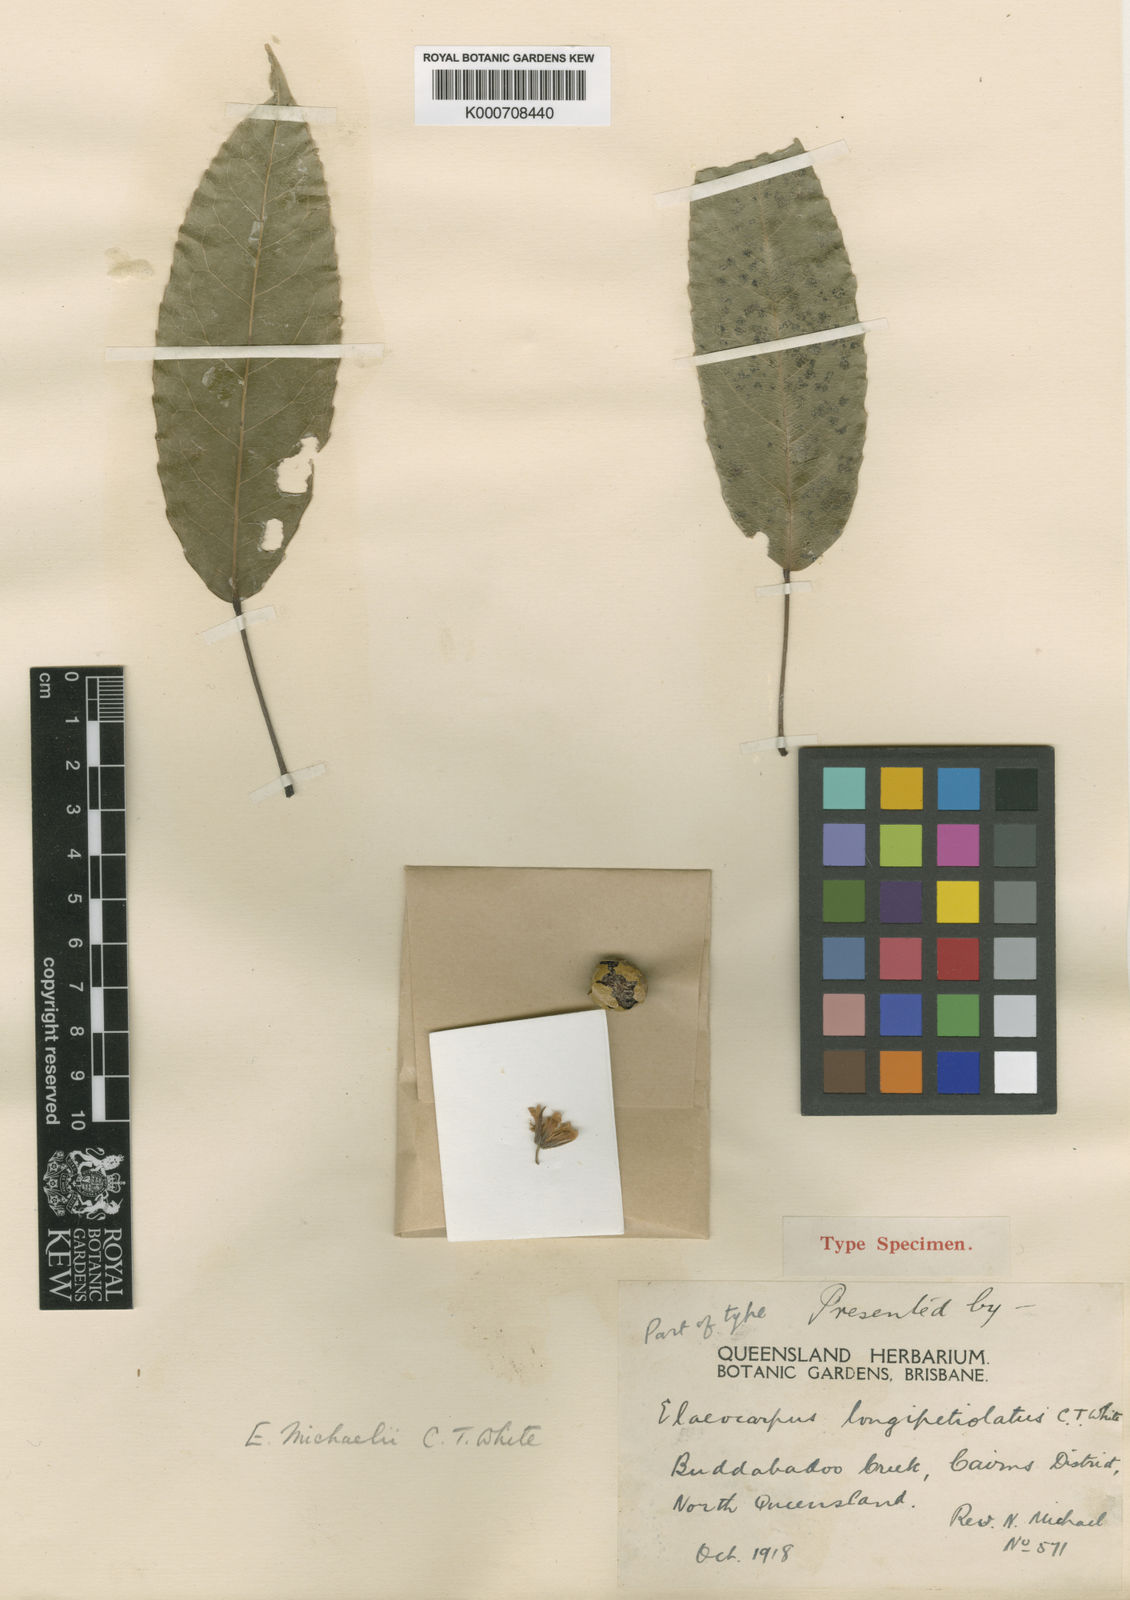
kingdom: Plantae
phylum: Tracheophyta
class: Magnoliopsida
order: Oxalidales
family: Elaeocarpaceae
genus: Elaeocarpus
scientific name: Elaeocarpus culminicola
